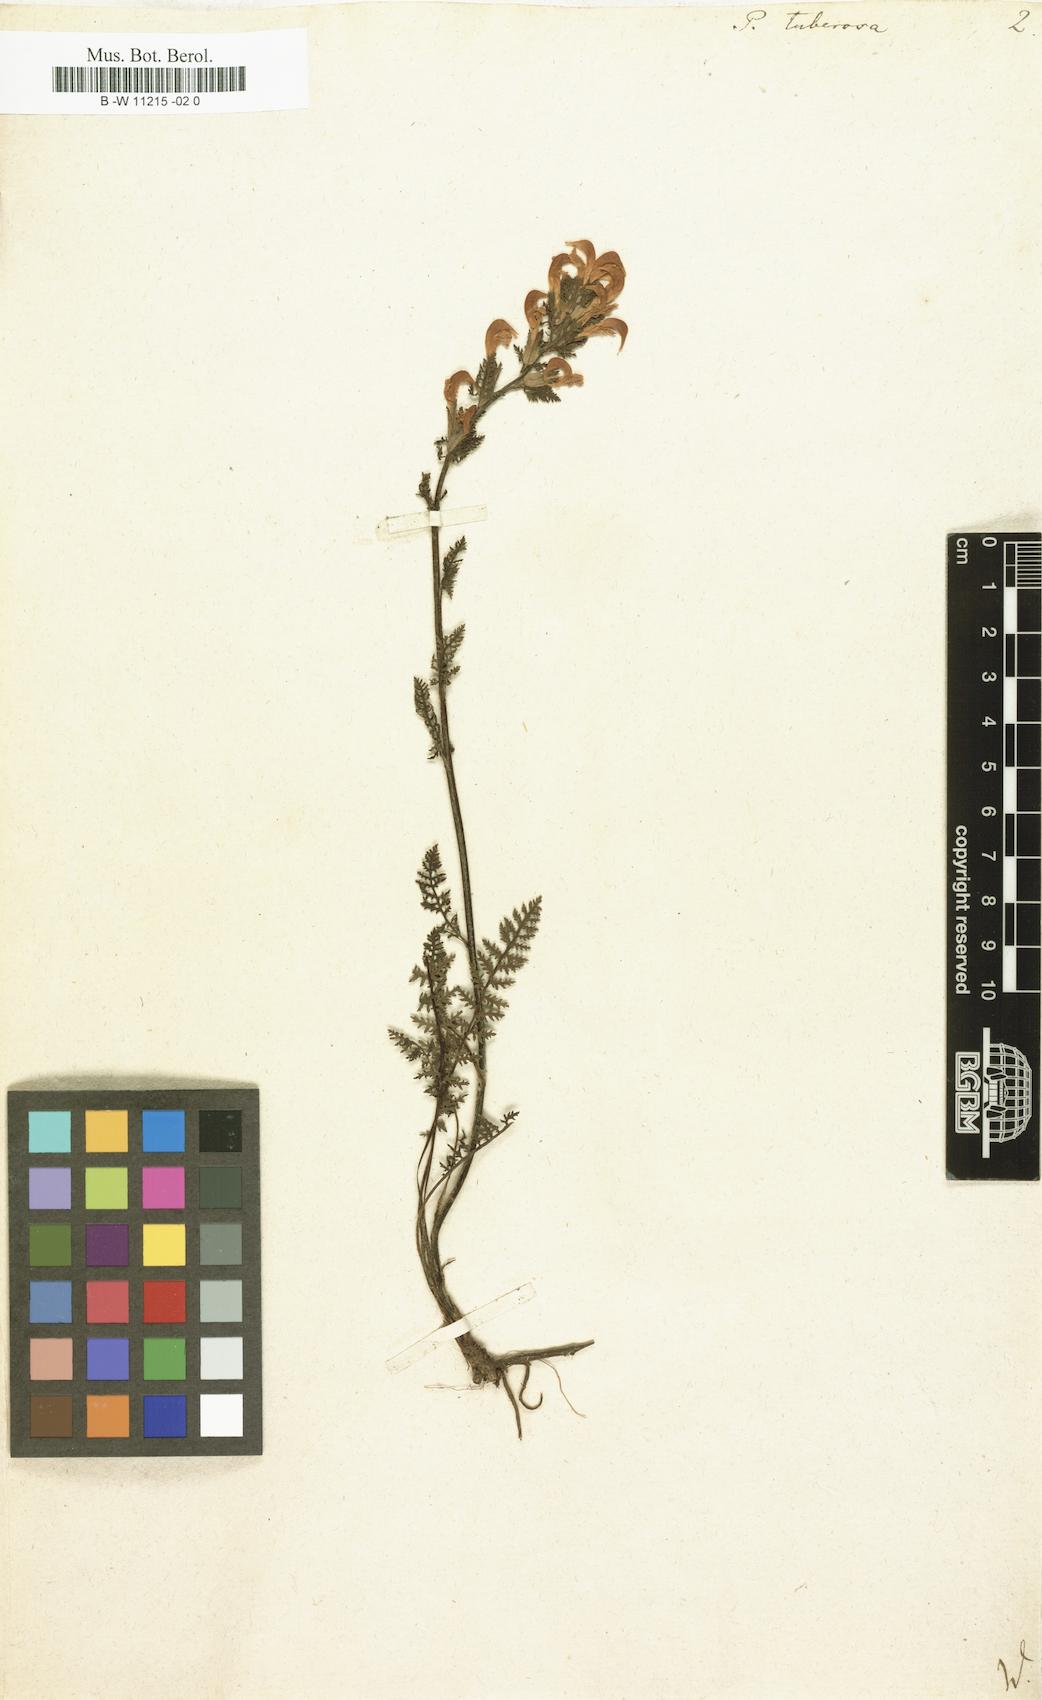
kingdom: Plantae
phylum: Tracheophyta
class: Magnoliopsida
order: Lamiales
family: Orobanchaceae
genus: Pedicularis
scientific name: Pedicularis tuberosa
